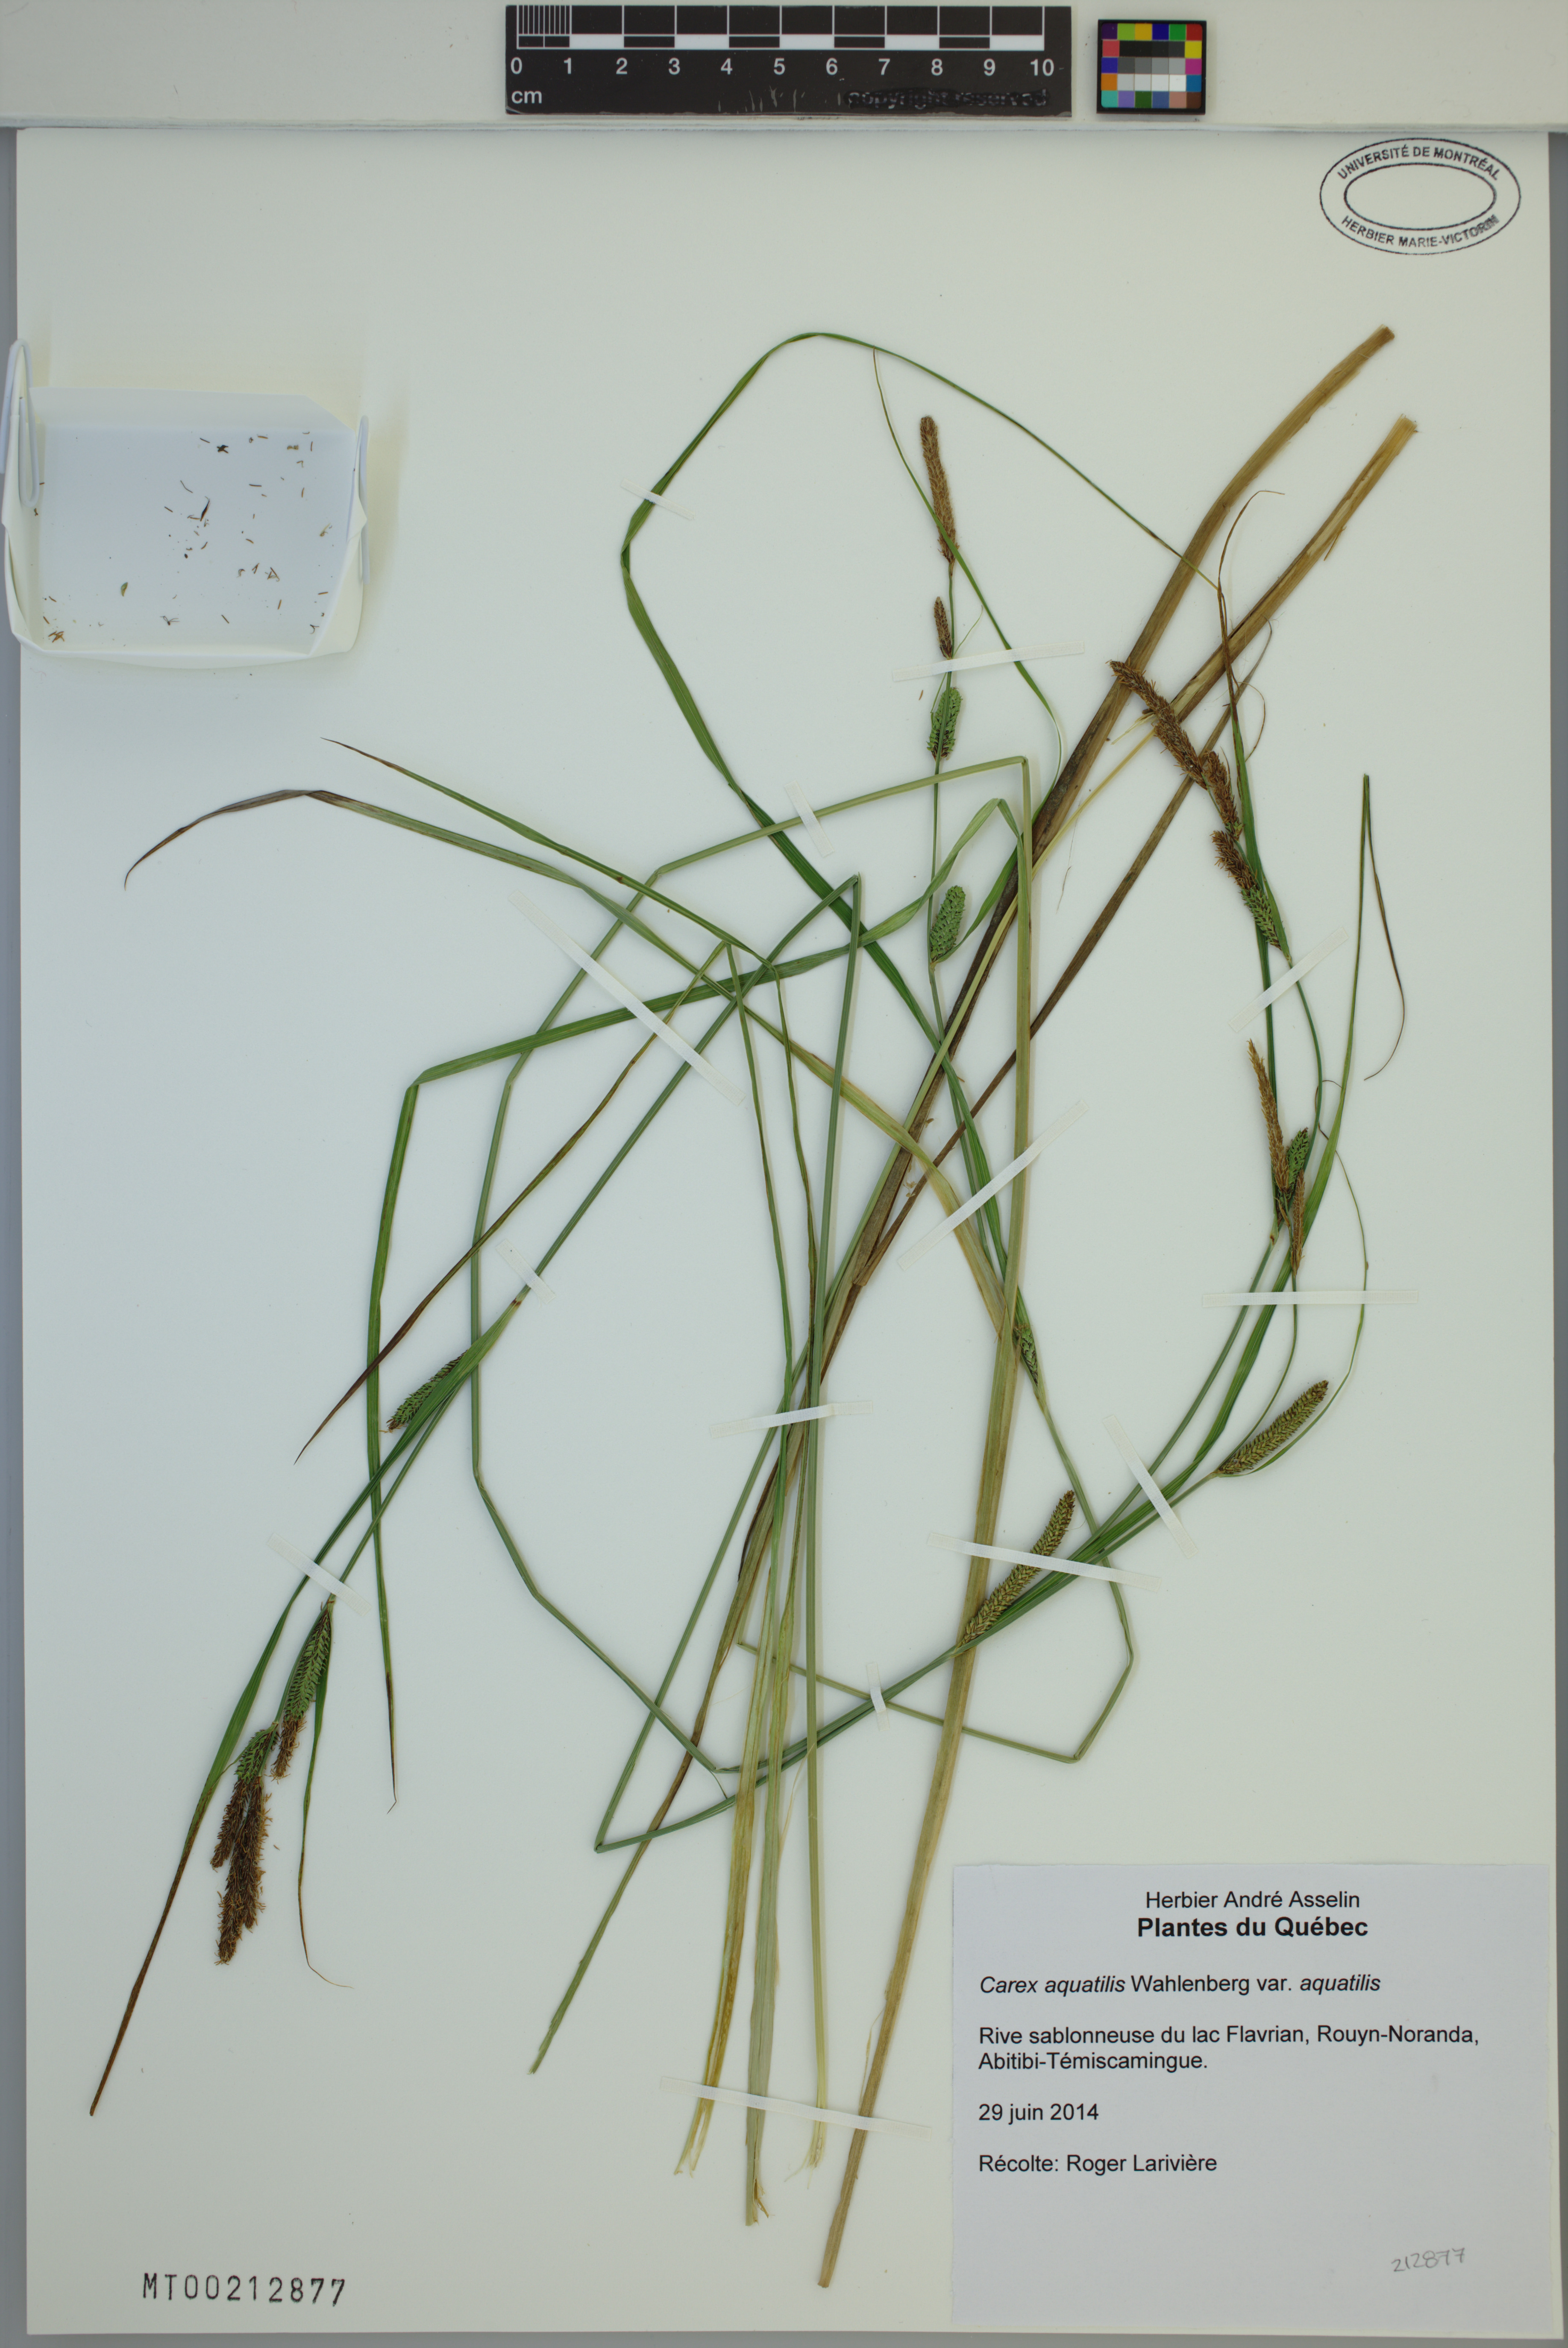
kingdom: Plantae
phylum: Tracheophyta
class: Liliopsida
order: Poales
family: Cyperaceae
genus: Carex
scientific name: Carex aquatilis
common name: Water sedge
